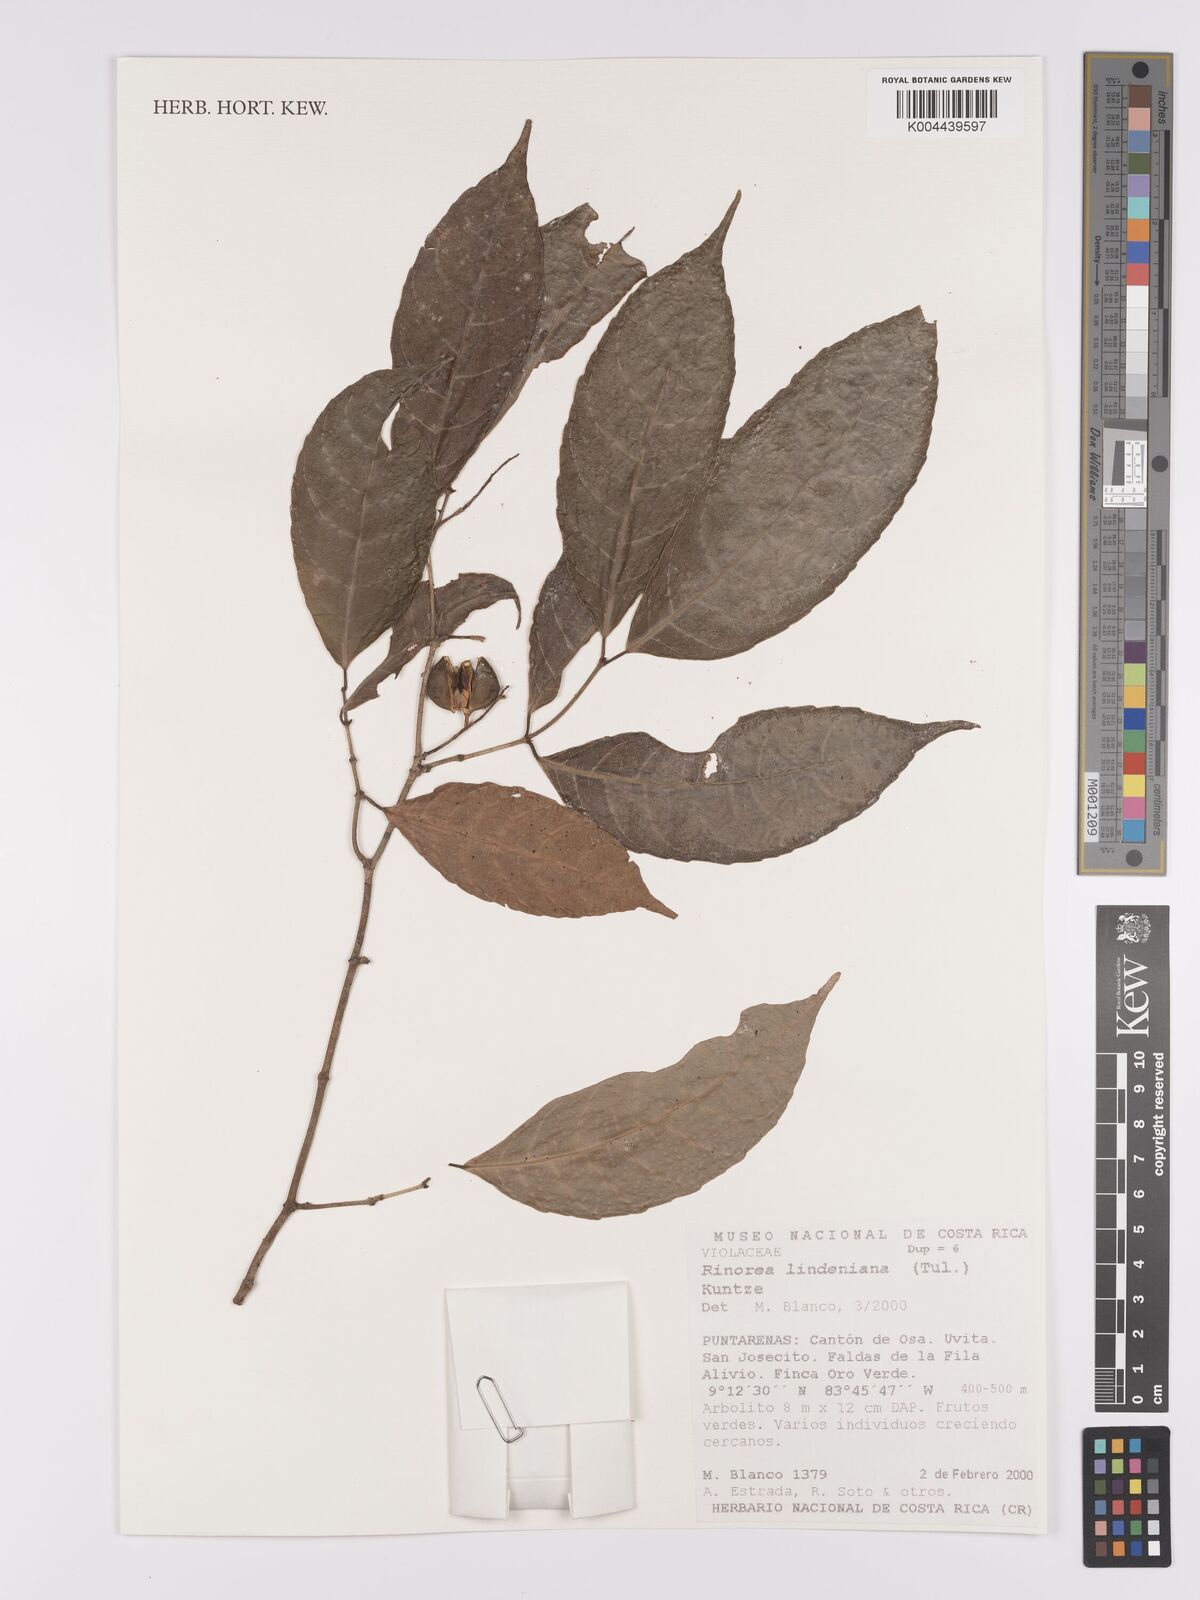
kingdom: Plantae
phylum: Tracheophyta
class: Magnoliopsida
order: Malpighiales
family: Violaceae
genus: Rinorea
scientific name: Rinorea lindeniana
